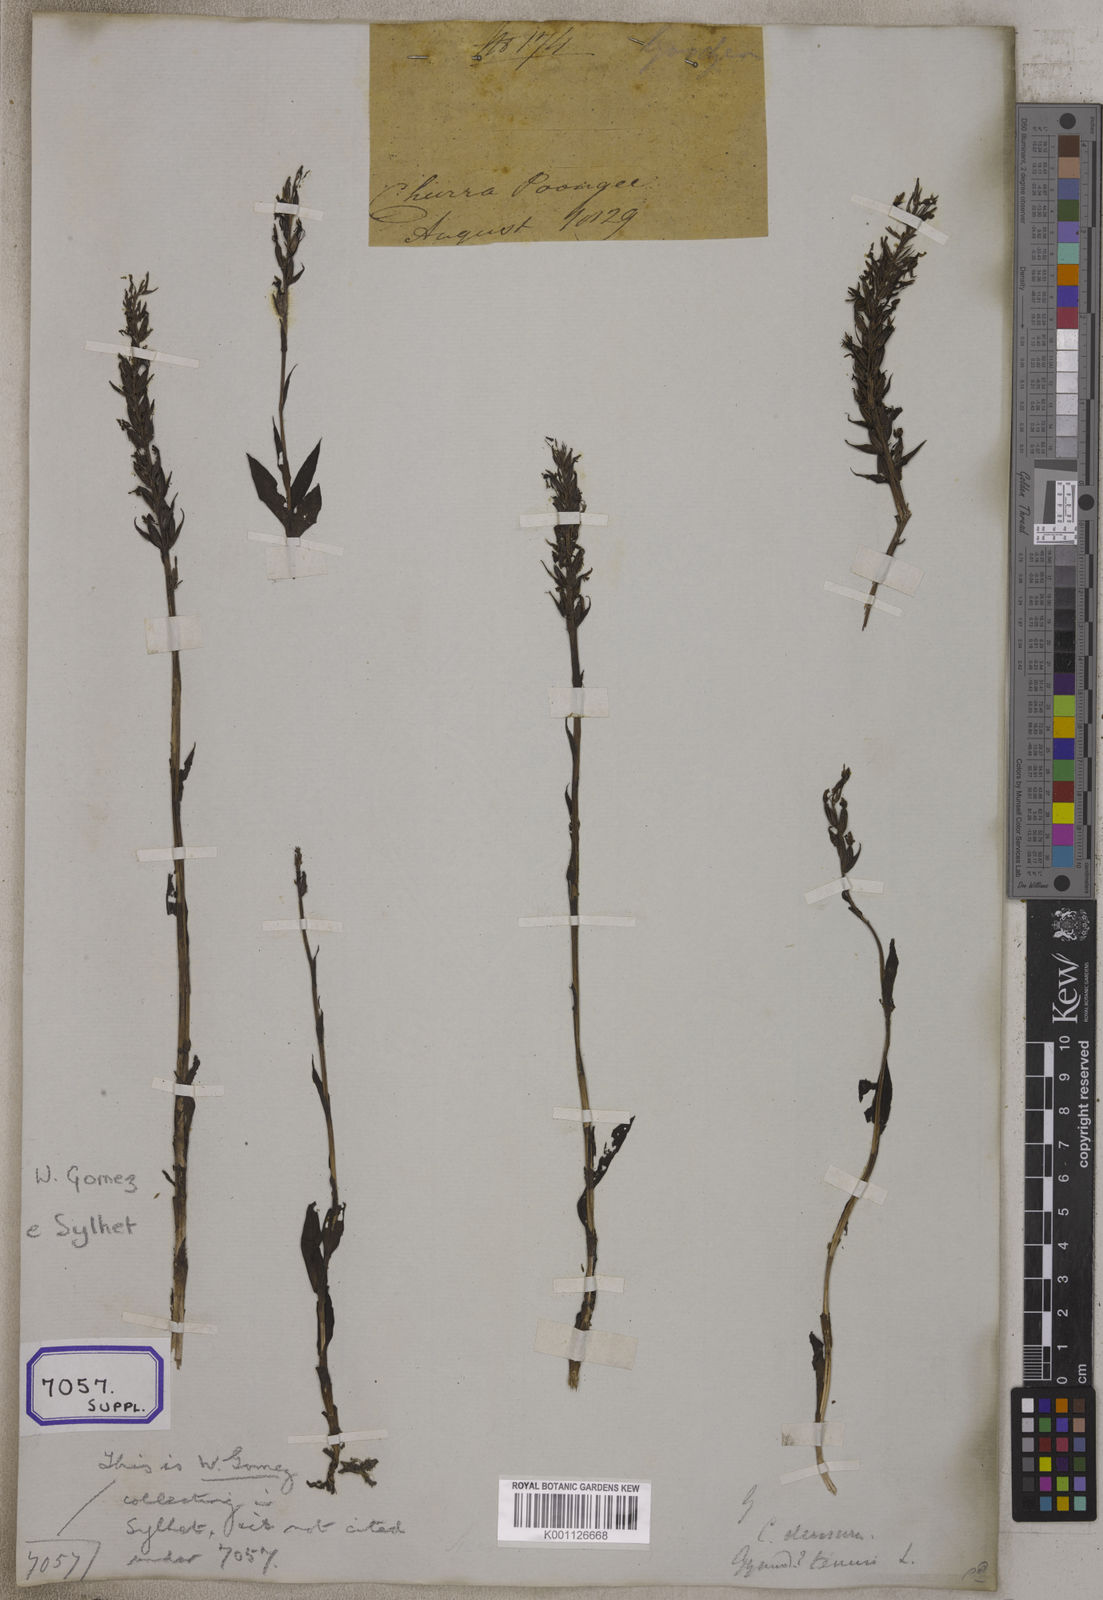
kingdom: Plantae
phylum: Tracheophyta
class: Liliopsida
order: Asparagales
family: Orchidaceae
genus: Gymnadenia
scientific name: Gymnadenia
